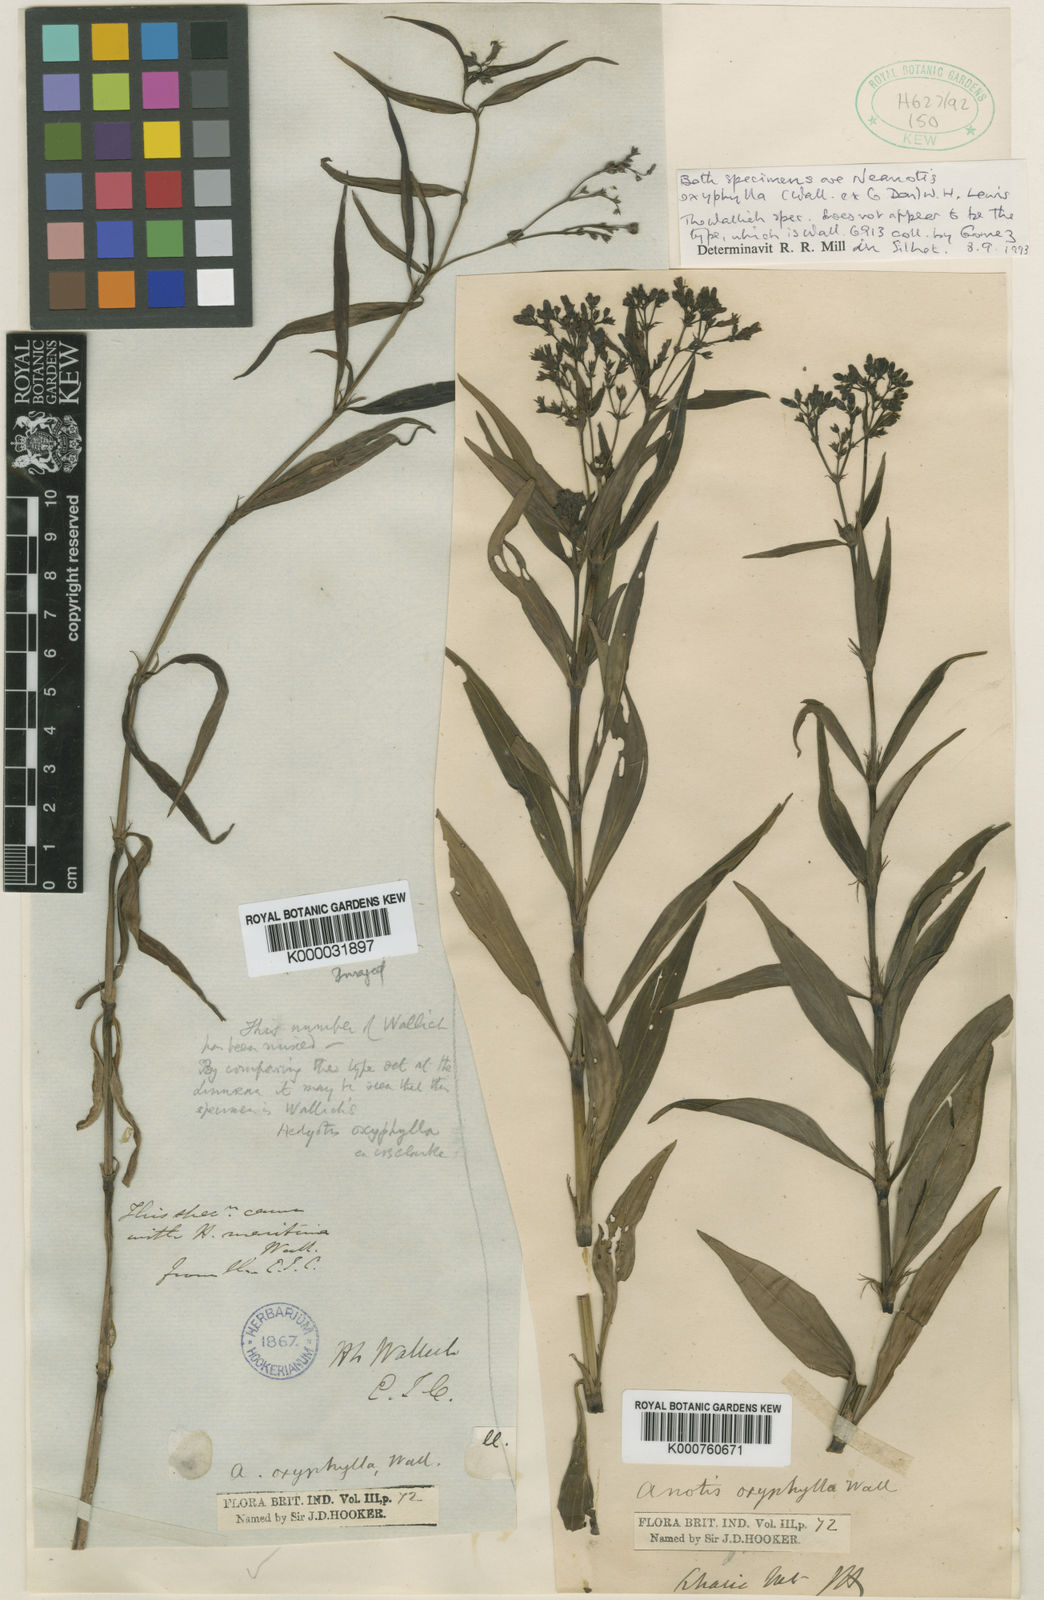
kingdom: Plantae
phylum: Tracheophyta
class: Magnoliopsida
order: Gentianales
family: Rubiaceae
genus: Neanotis
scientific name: Neanotis decipiens
